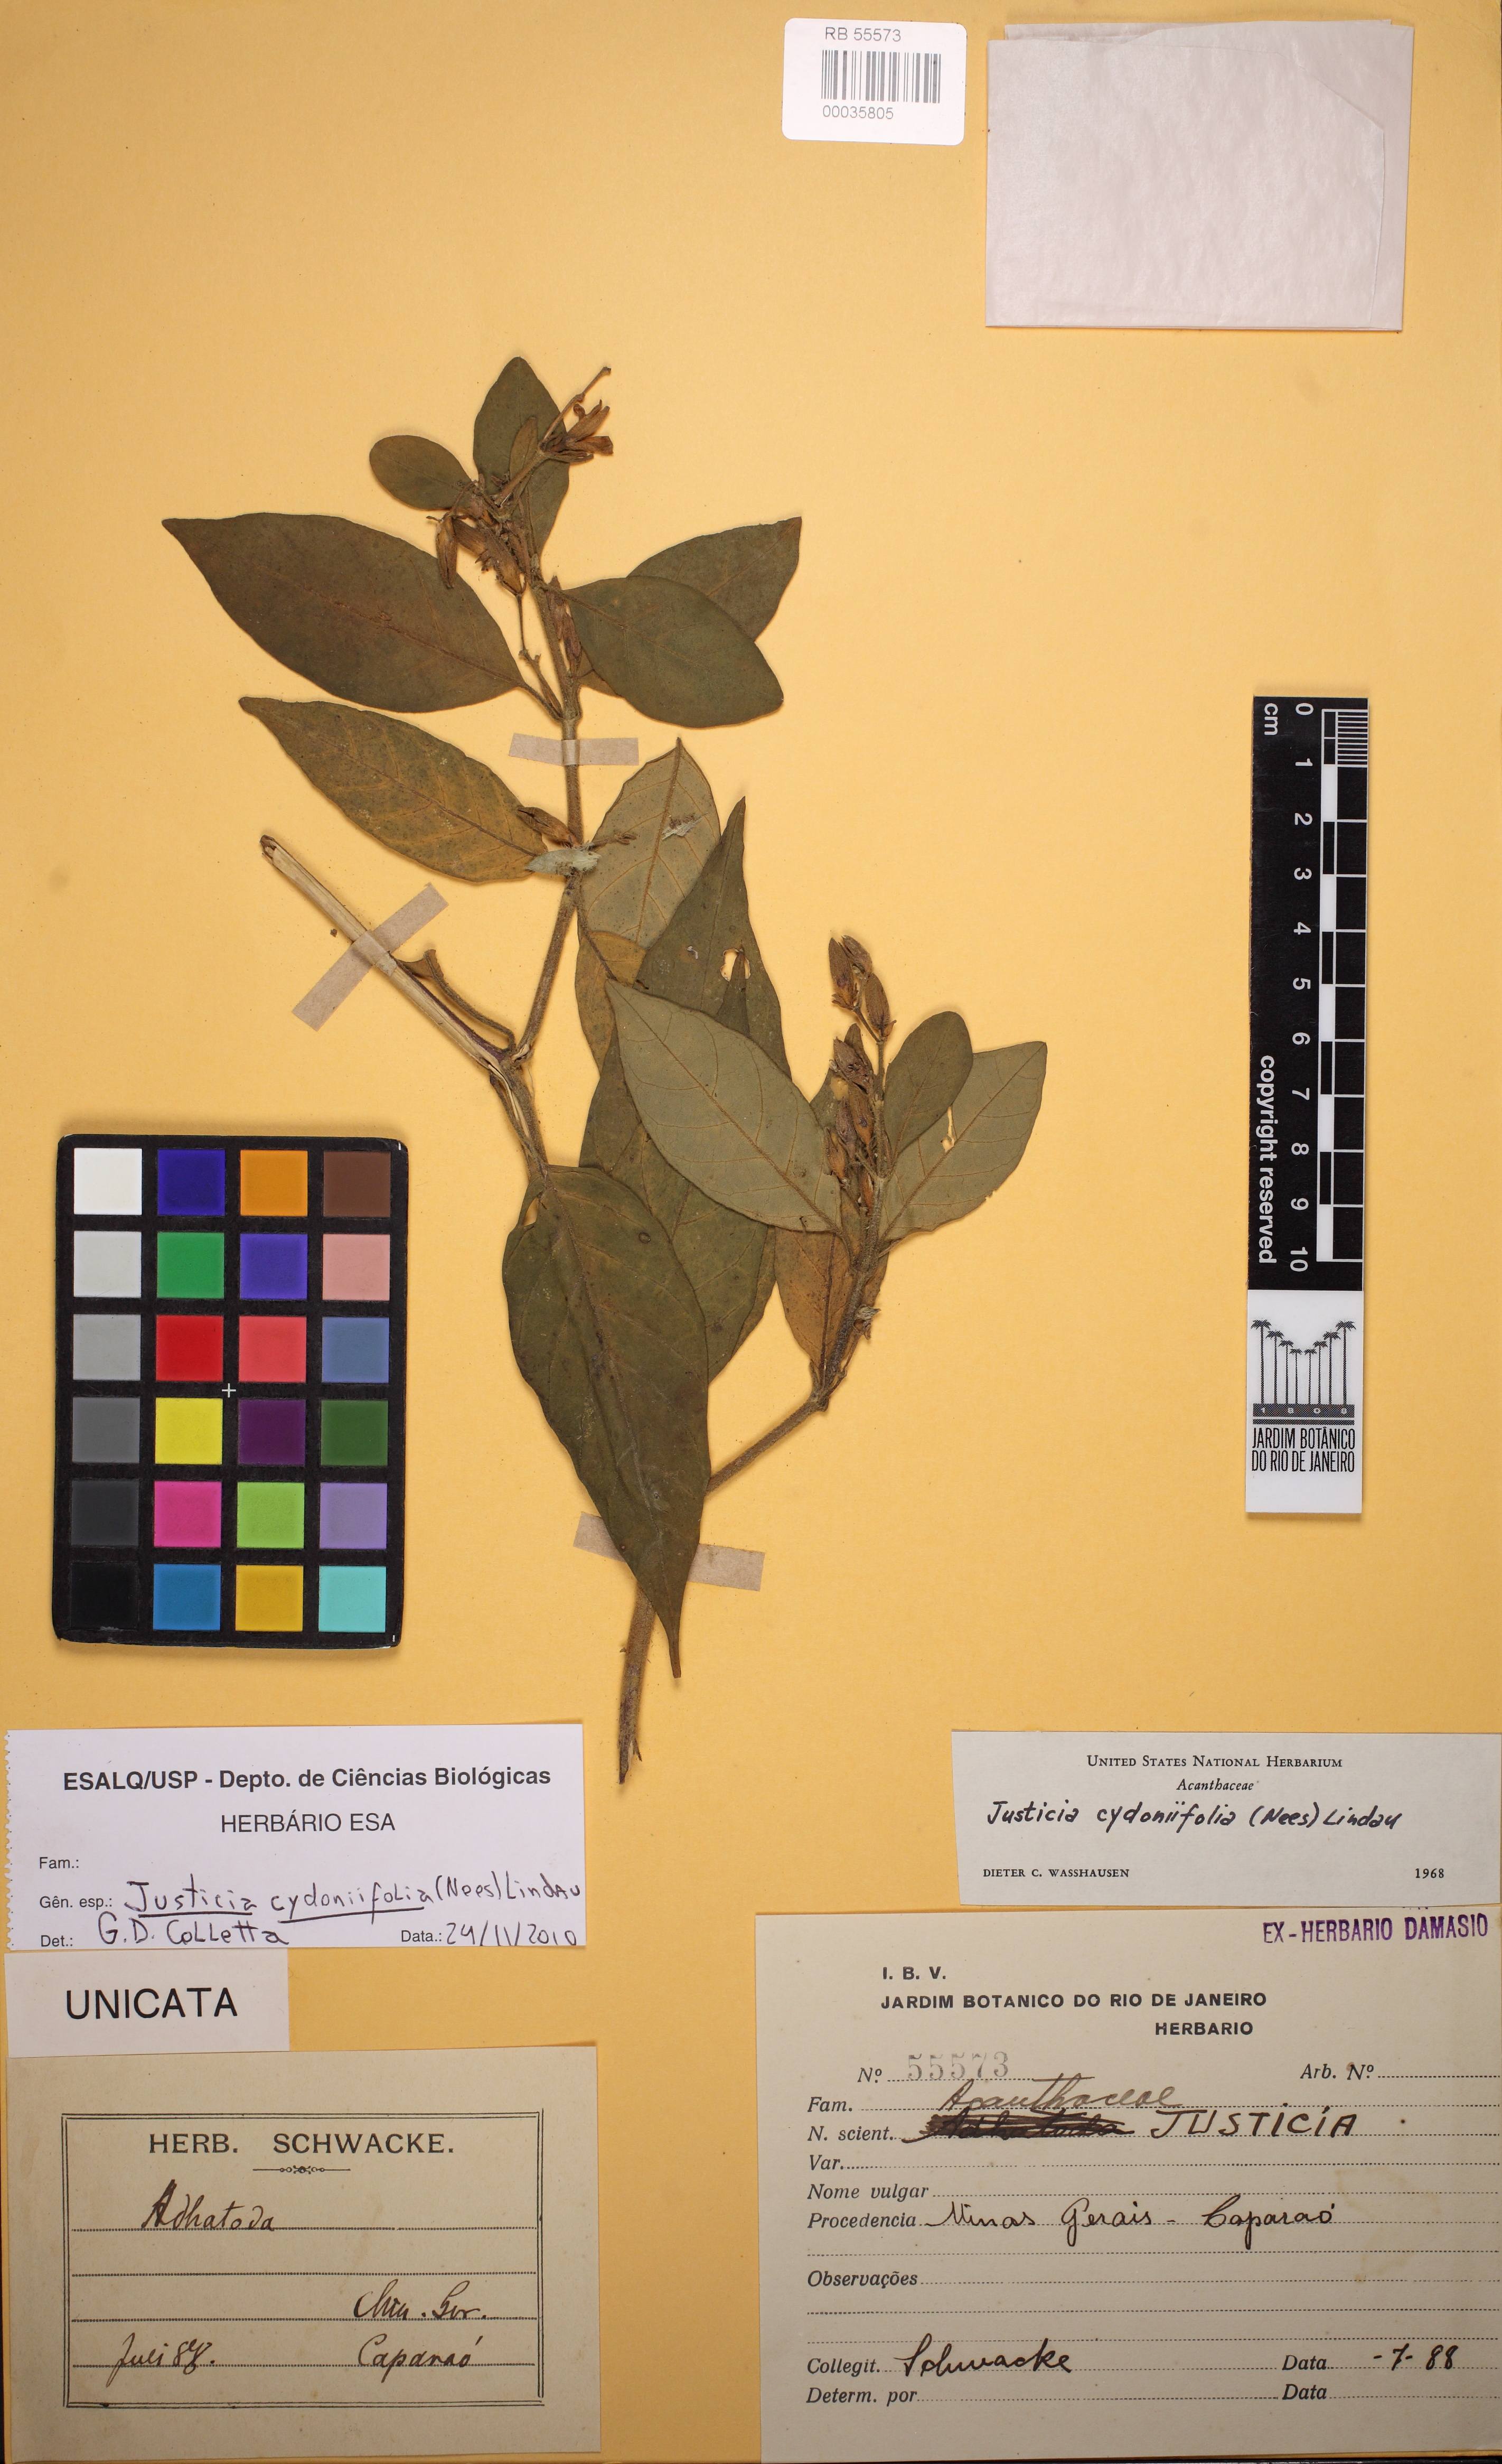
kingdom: Plantae
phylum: Tracheophyta
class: Magnoliopsida
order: Lamiales
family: Acanthaceae
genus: Justicia
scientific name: Justicia cydoniifolia
